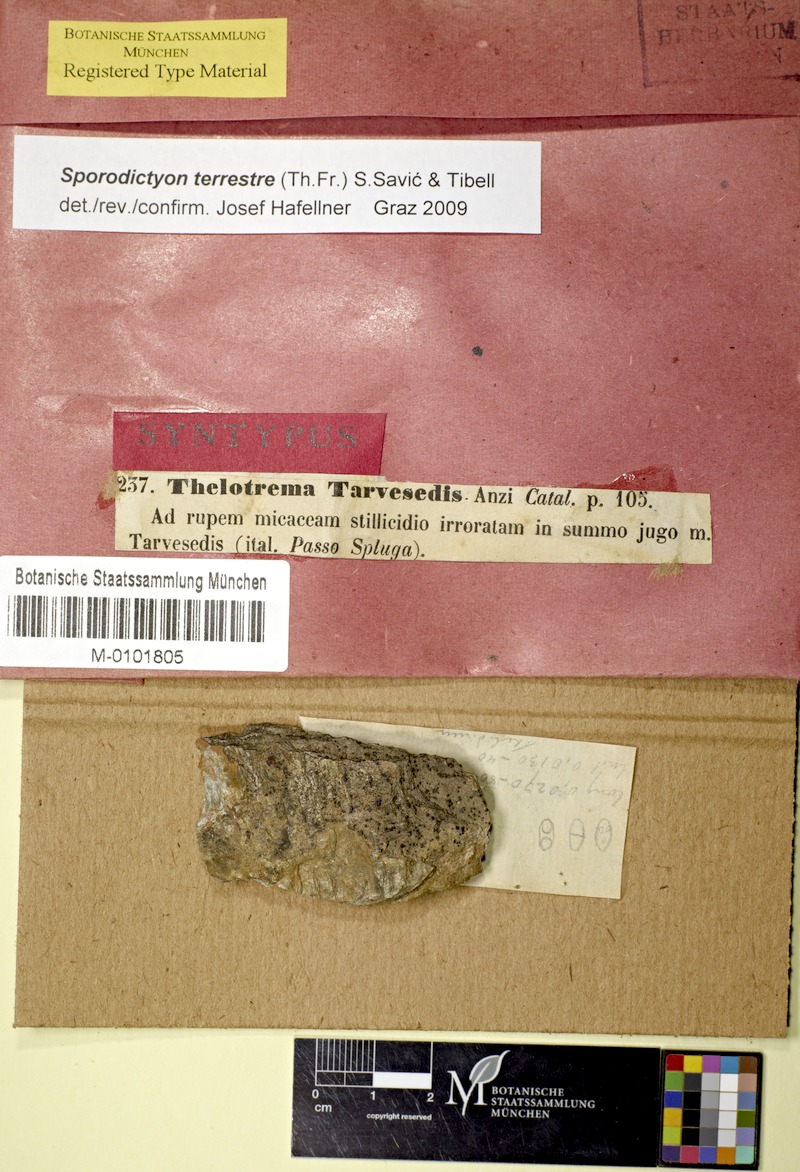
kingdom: Fungi
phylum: Ascomycota
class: Eurotiomycetes
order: Verrucariales
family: Verrucariaceae
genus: Sporodictyon
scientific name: Sporodictyon terrestre
